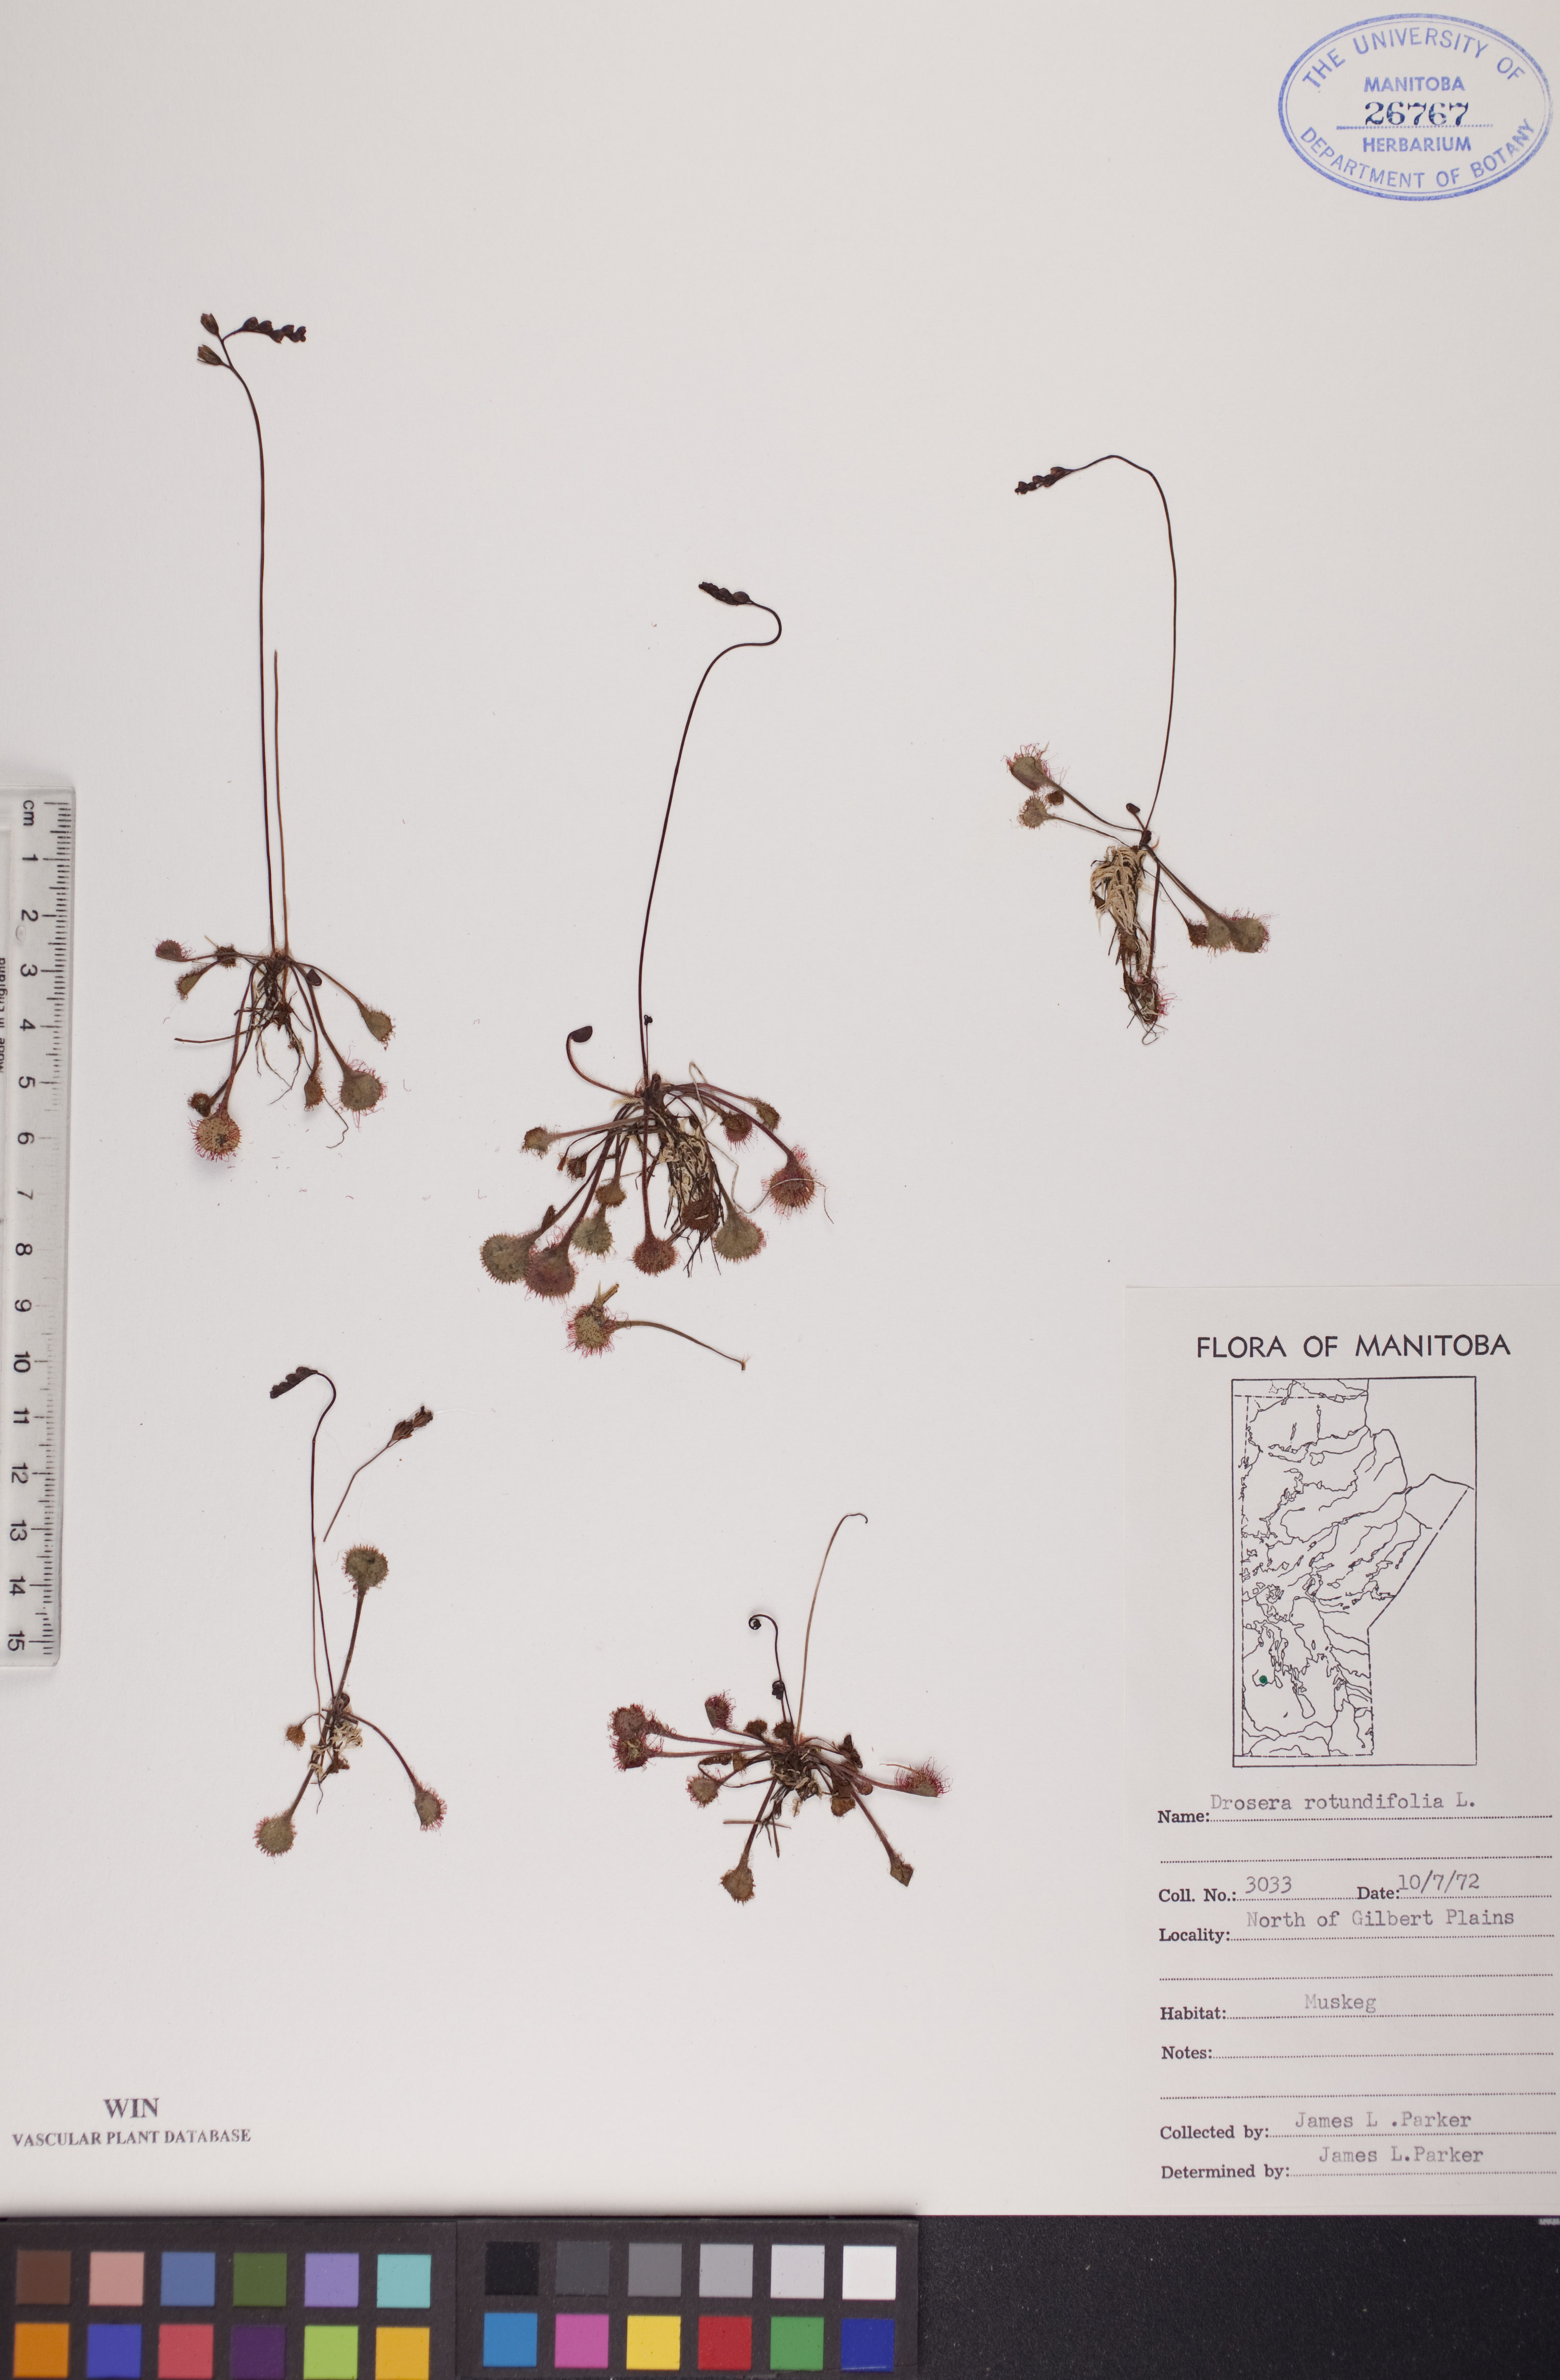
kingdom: Plantae
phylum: Tracheophyta
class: Magnoliopsida
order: Caryophyllales
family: Droseraceae
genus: Drosera
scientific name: Drosera rotundifolia
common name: Round-leaved sundew
